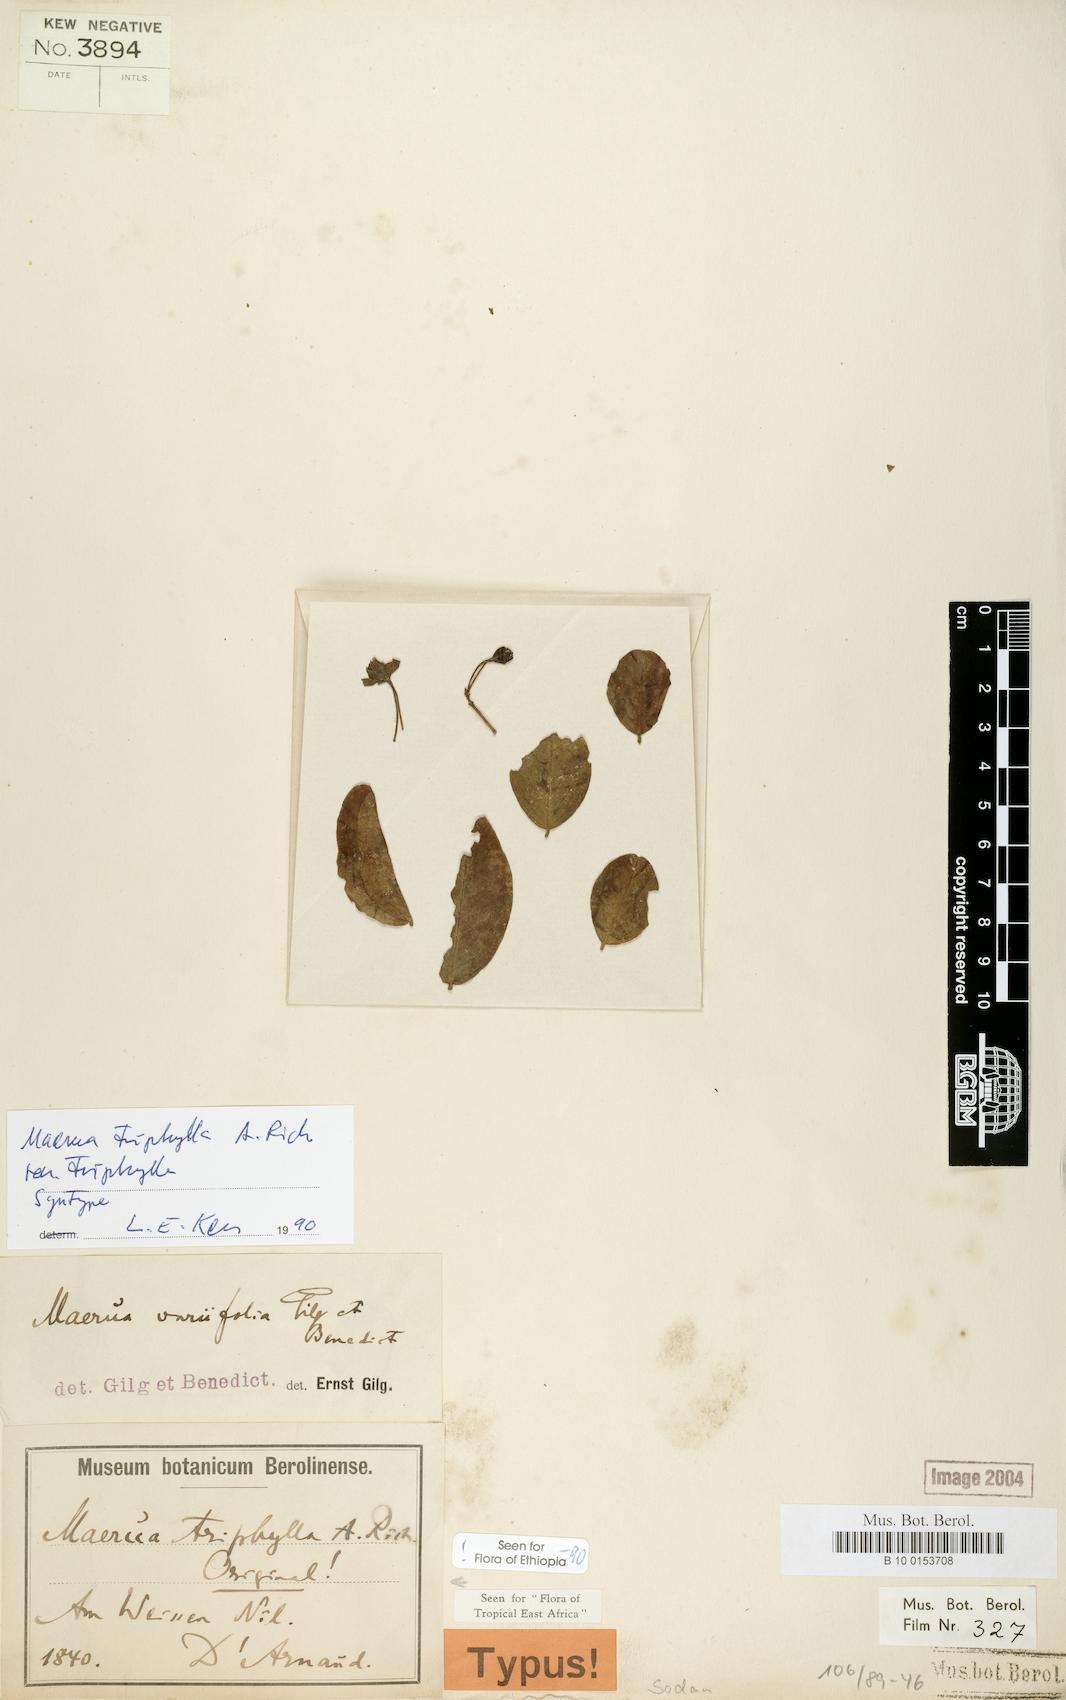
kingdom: Plantae
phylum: Tracheophyta
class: Magnoliopsida
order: Brassicales
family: Capparaceae
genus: Maerua
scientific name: Maerua triphylla
